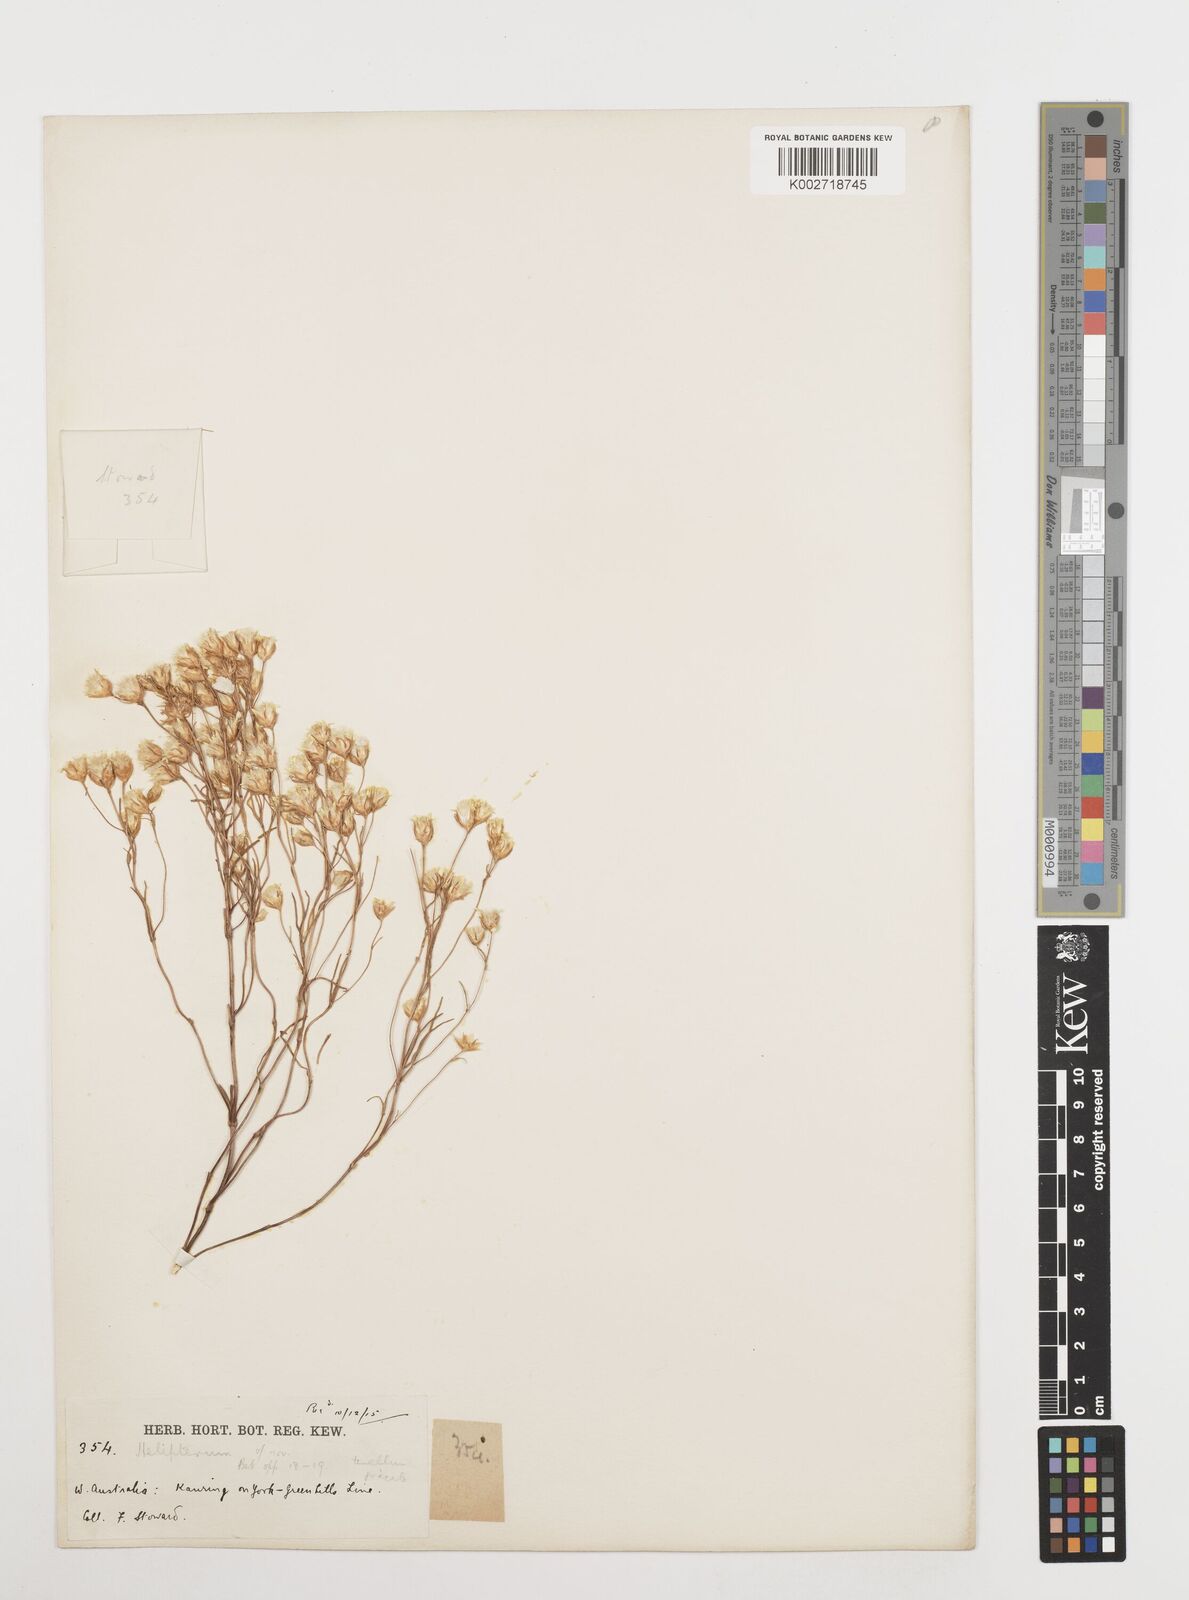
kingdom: Plantae
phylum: Tracheophyta
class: Magnoliopsida
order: Asterales
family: Asteraceae
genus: Erymophyllum
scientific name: Erymophyllum tenellum
